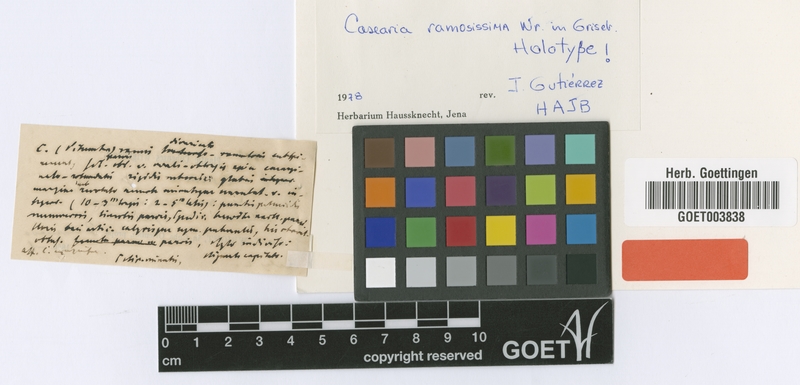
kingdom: Plantae
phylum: Tracheophyta
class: Magnoliopsida
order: Malpighiales
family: Salicaceae
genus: Casearia
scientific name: Casearia ramosissima
